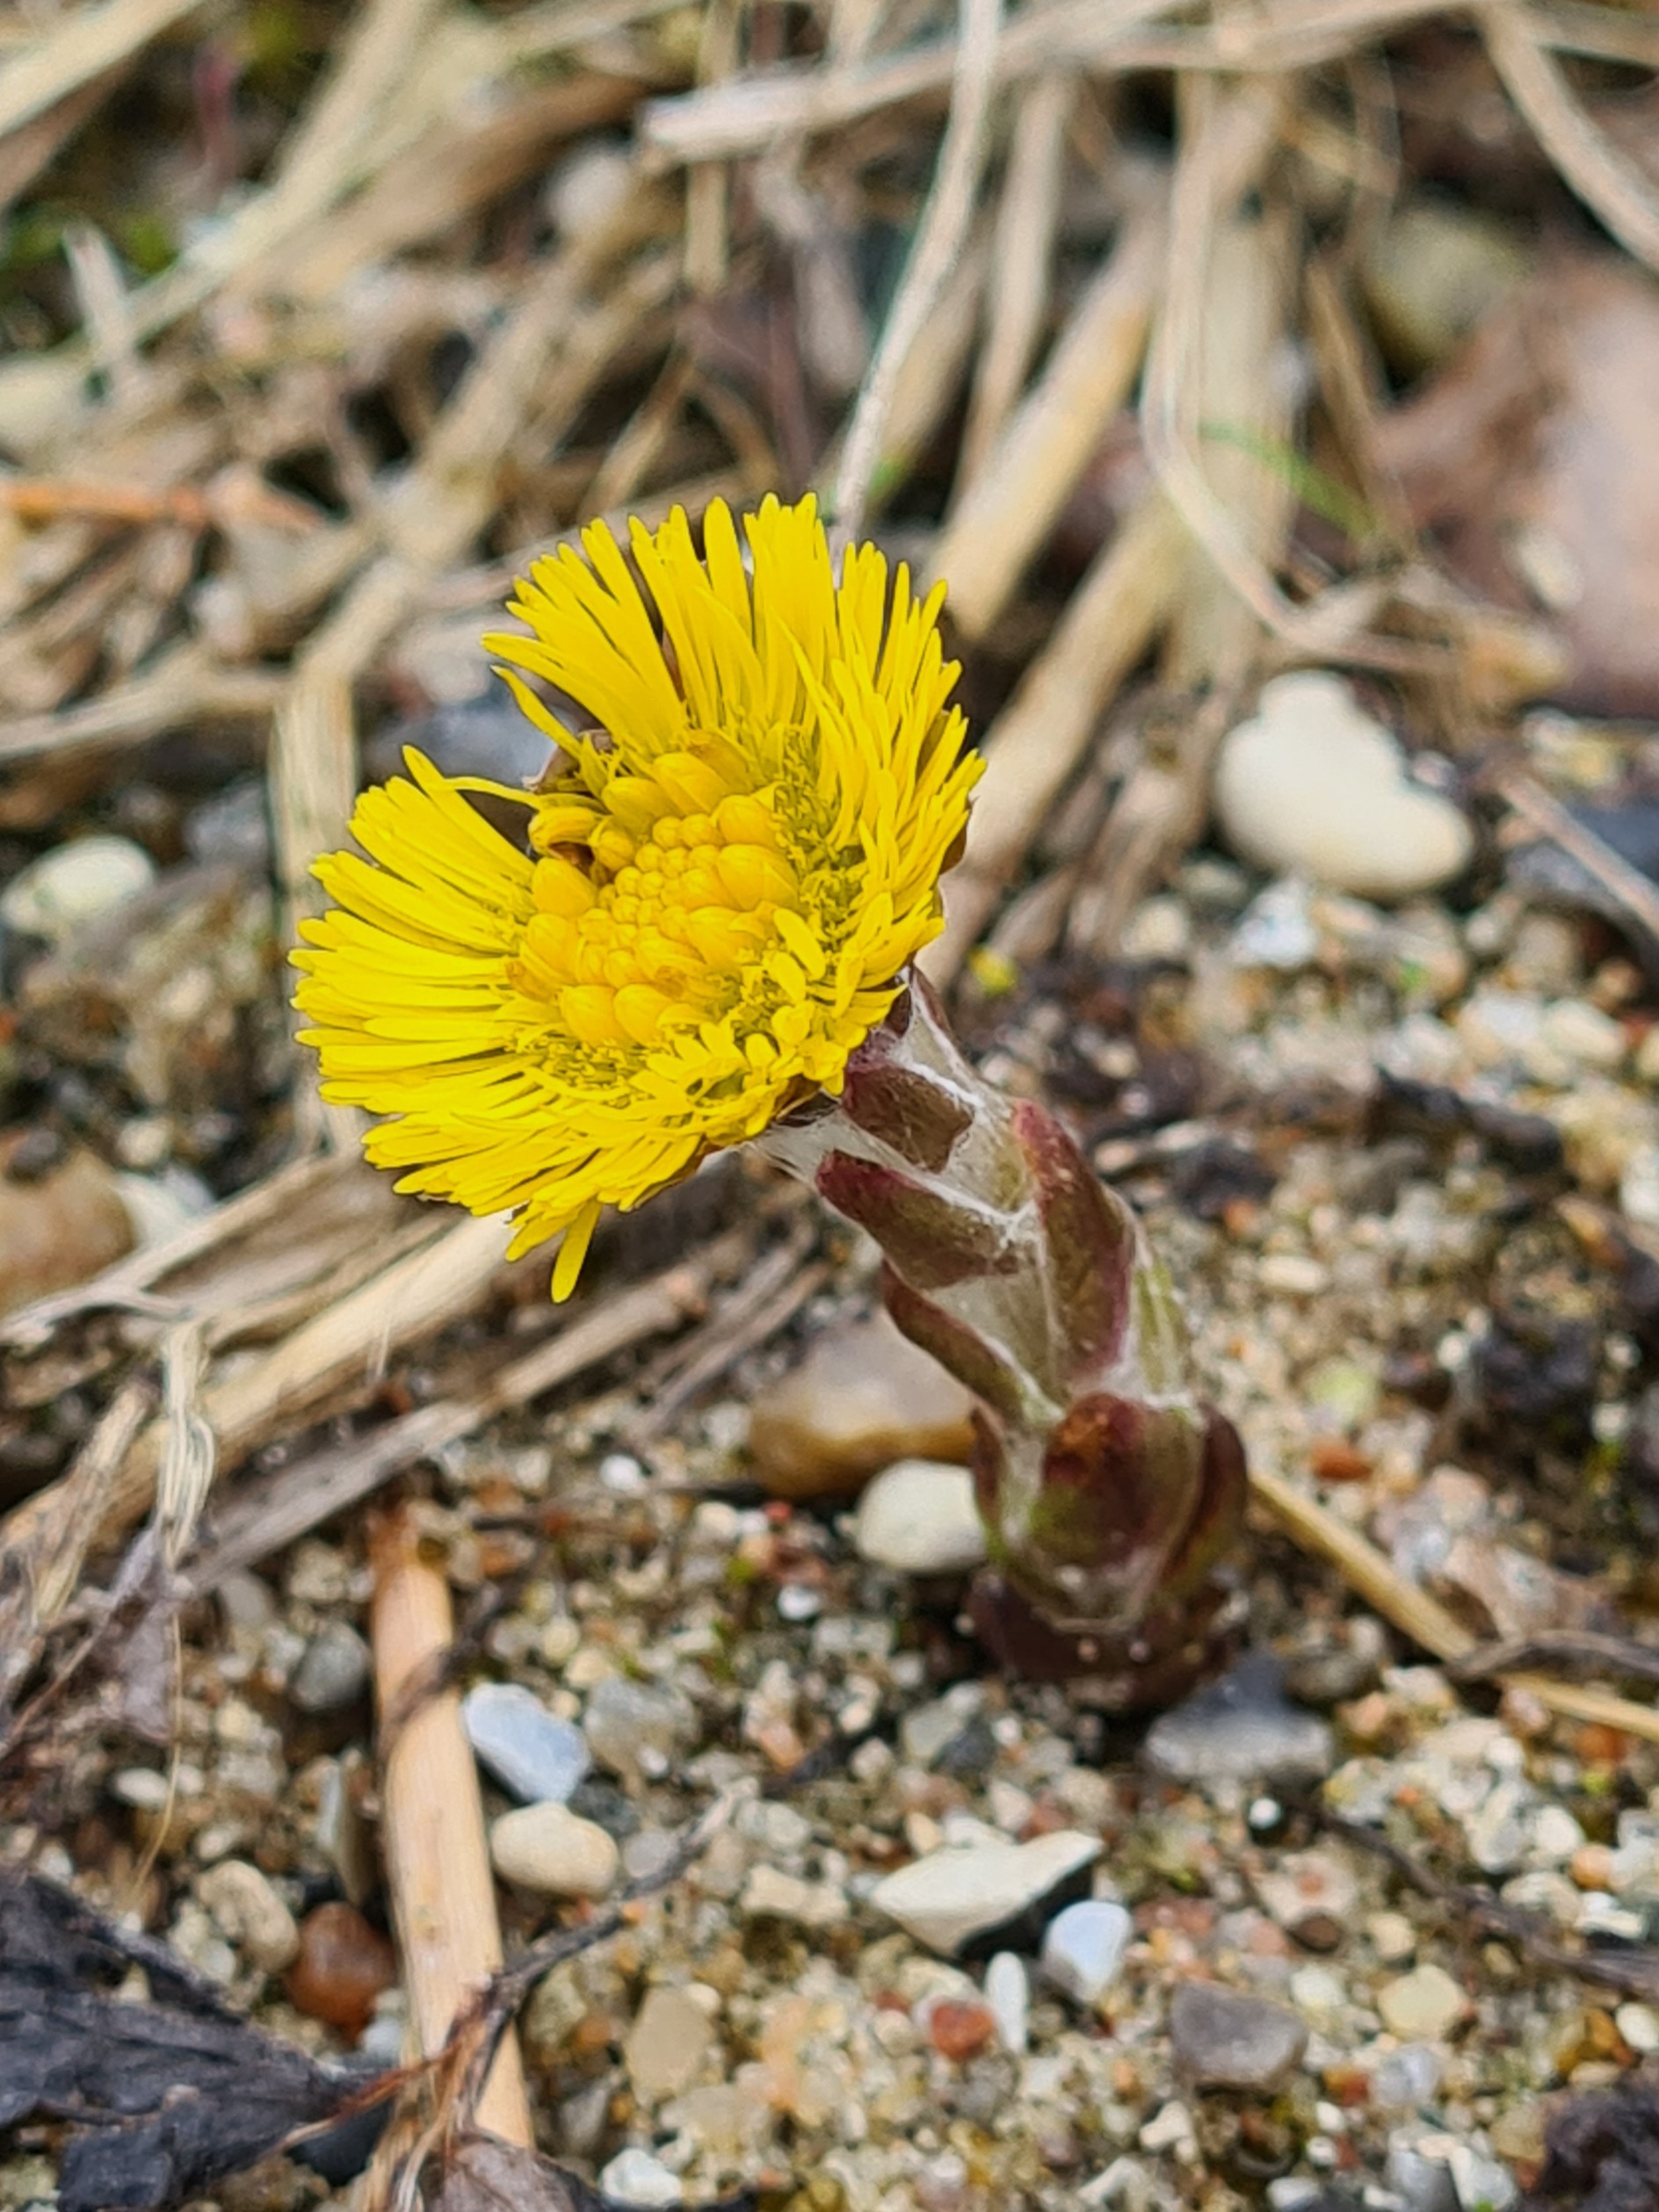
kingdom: Plantae
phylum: Tracheophyta
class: Magnoliopsida
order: Asterales
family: Asteraceae
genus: Tussilago
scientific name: Tussilago farfara
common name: Følfod
